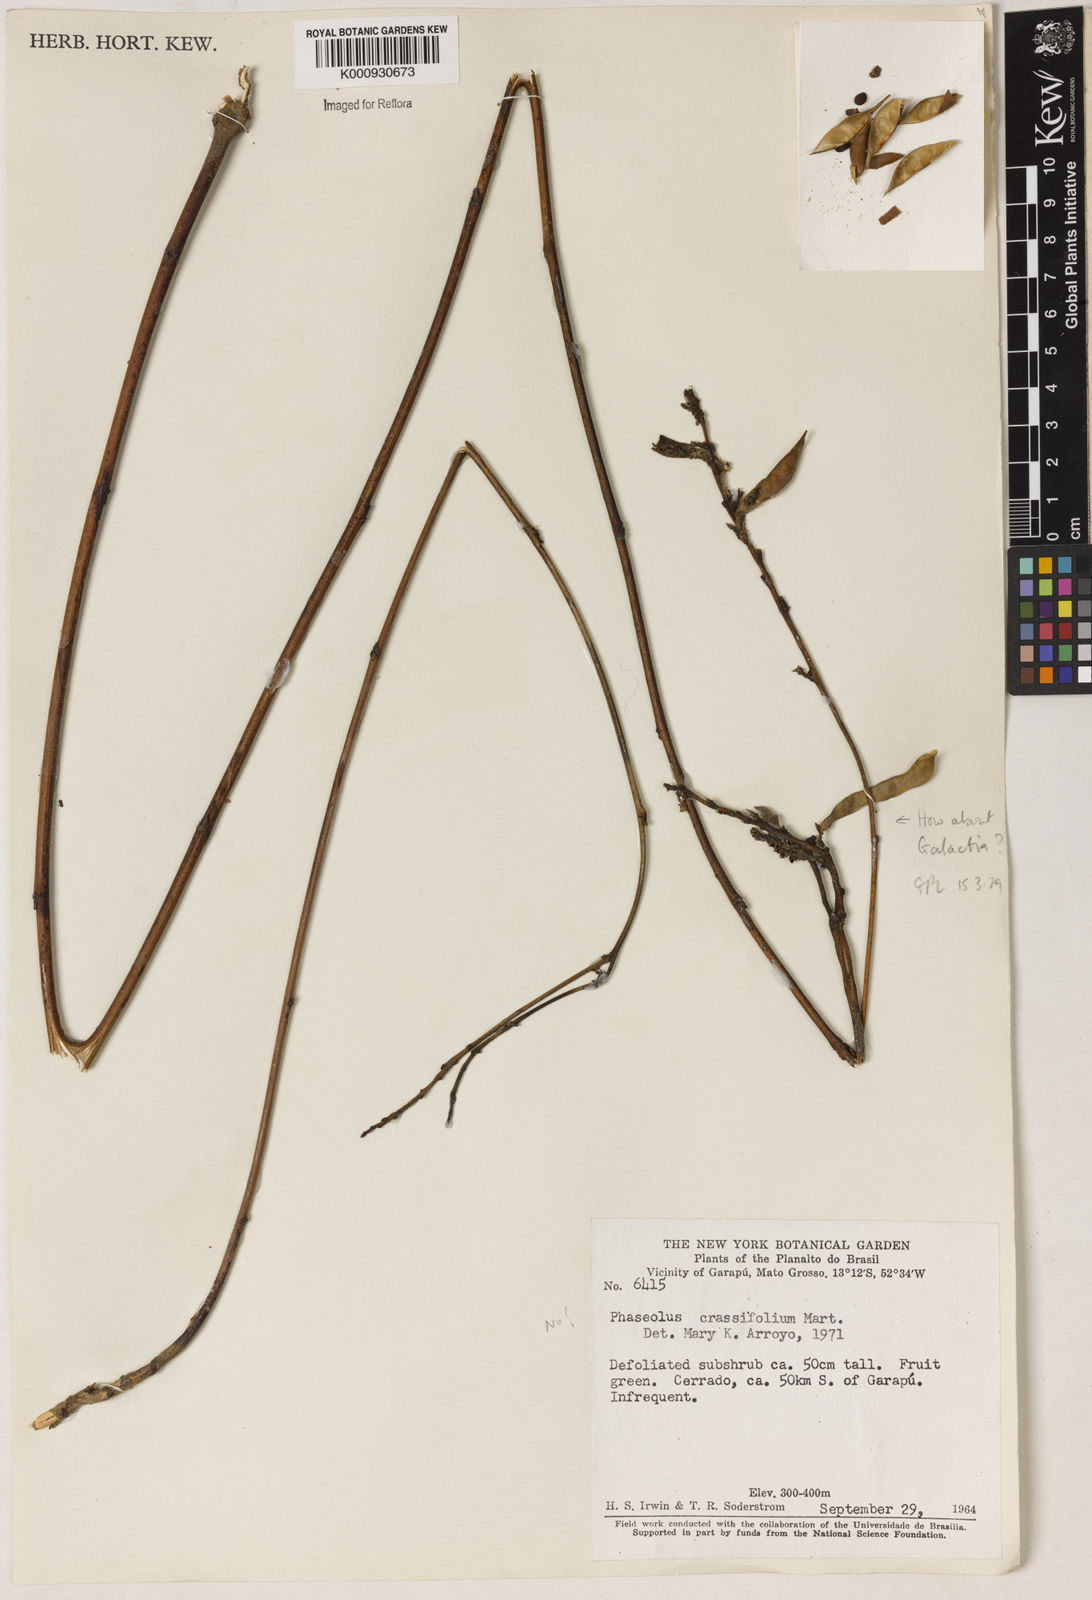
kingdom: Plantae
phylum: Tracheophyta
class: Magnoliopsida
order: Fabales
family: Fabaceae
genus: Galactia
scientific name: Galactia
